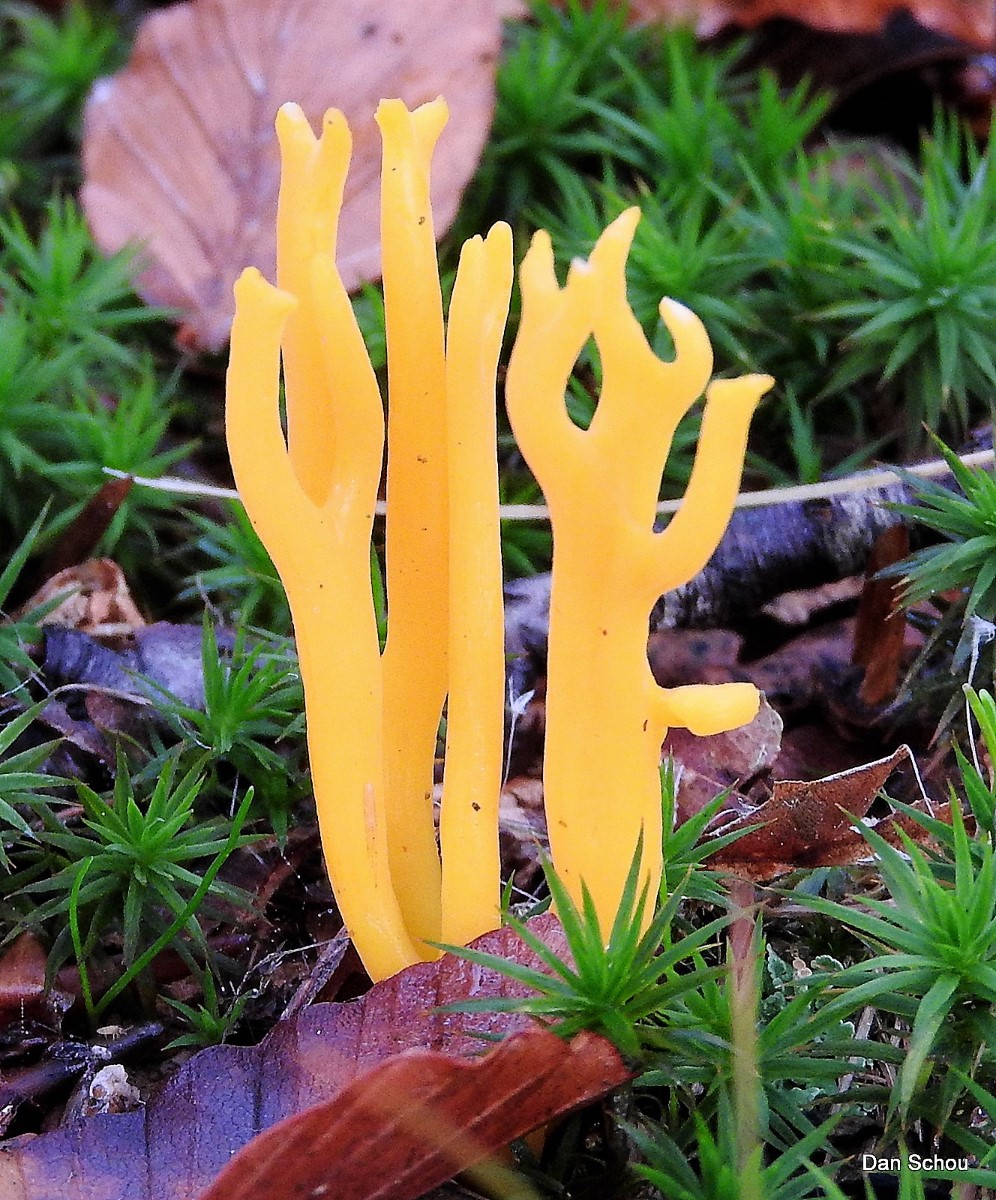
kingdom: Fungi
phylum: Basidiomycota
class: Dacrymycetes
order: Dacrymycetales
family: Dacrymycetaceae
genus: Calocera
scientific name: Calocera viscosa
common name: almindelig guldgaffel
